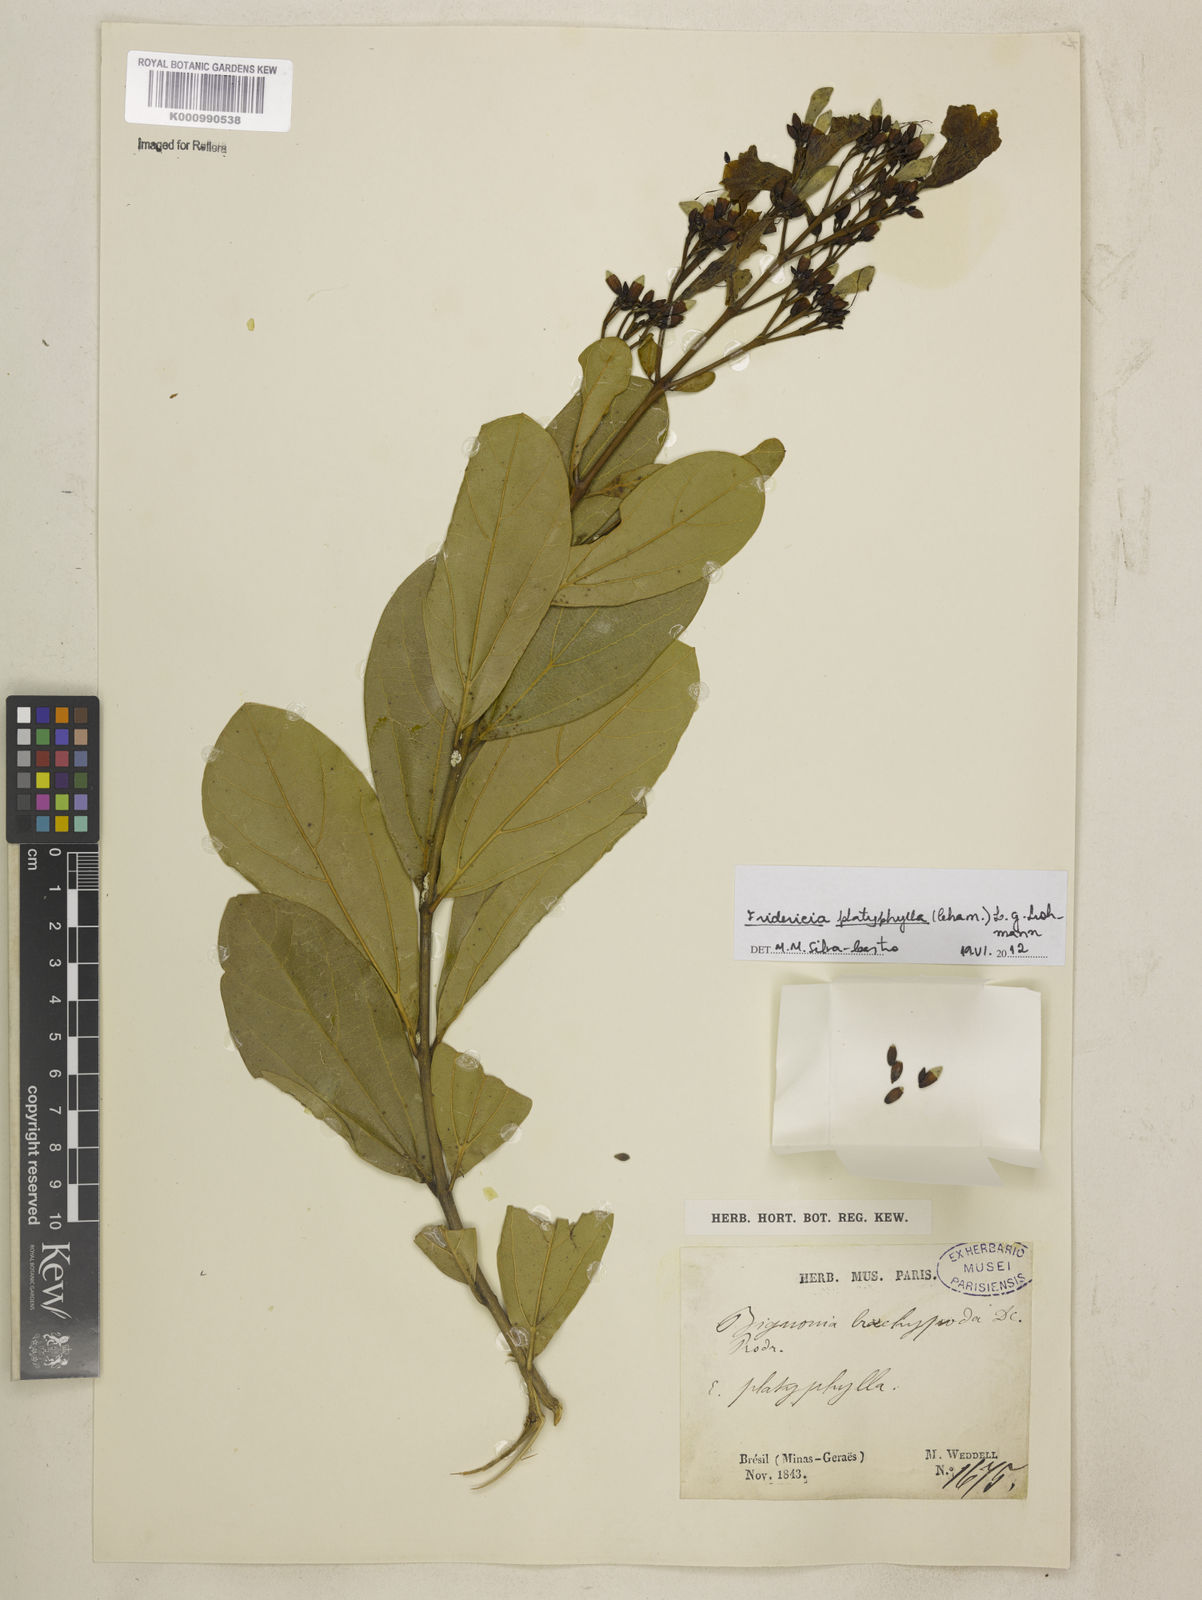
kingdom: Plantae
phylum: Tracheophyta
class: Magnoliopsida
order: Lamiales
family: Bignoniaceae
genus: Fridericia
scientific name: Fridericia platyphylla
